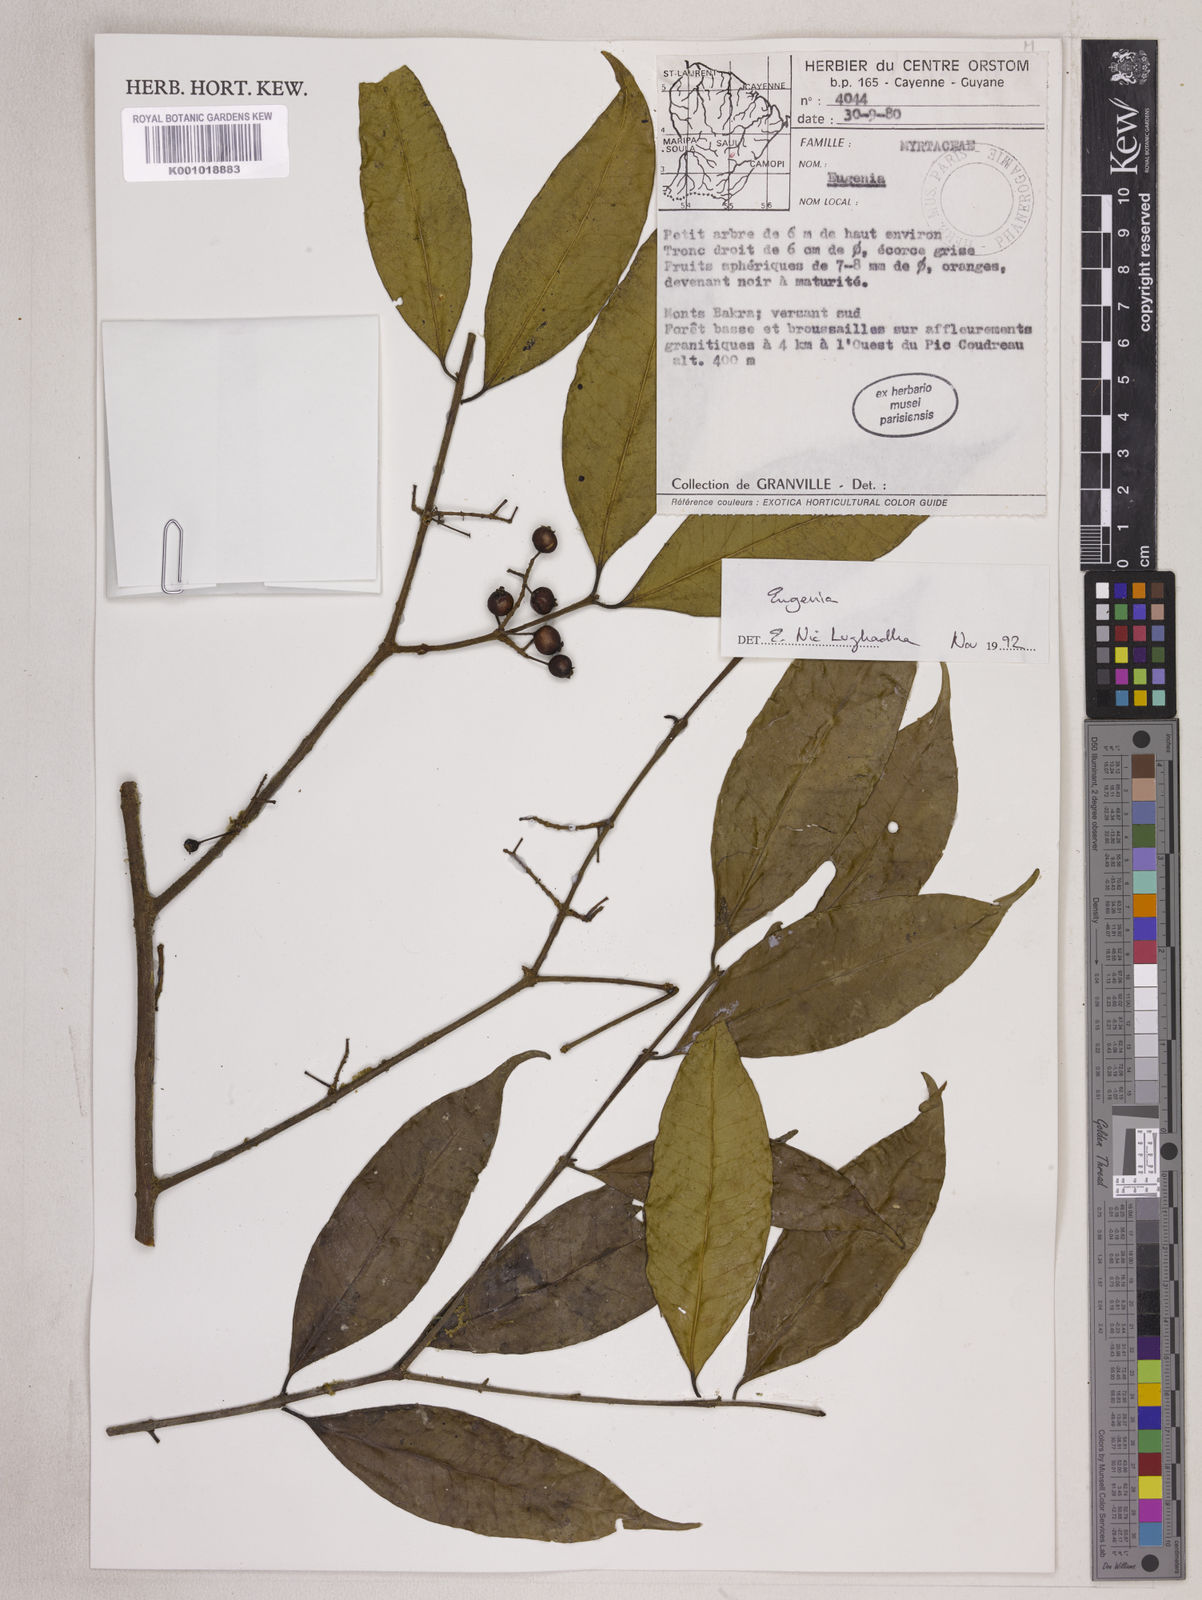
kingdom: Plantae
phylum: Tracheophyta
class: Magnoliopsida
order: Myrtales
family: Myrtaceae
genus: Eugenia
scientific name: Eugenia densiracemosa
